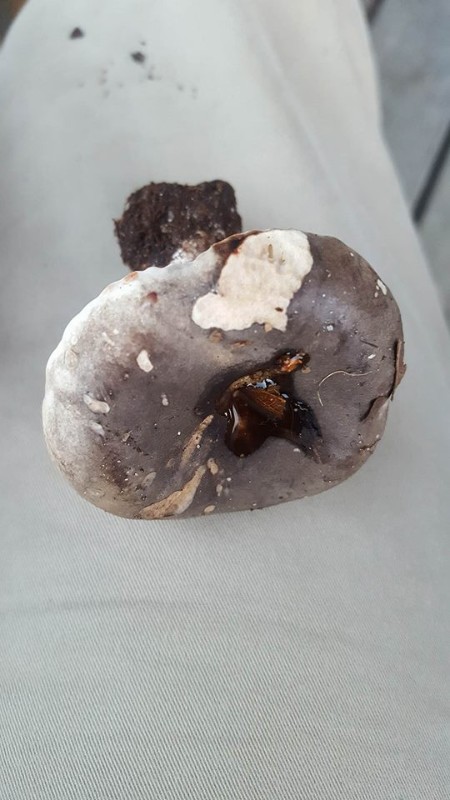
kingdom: Fungi
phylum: Basidiomycota
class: Agaricomycetes
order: Russulales
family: Russulaceae
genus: Russula
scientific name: Russula adusta
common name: sværtende skørhat
